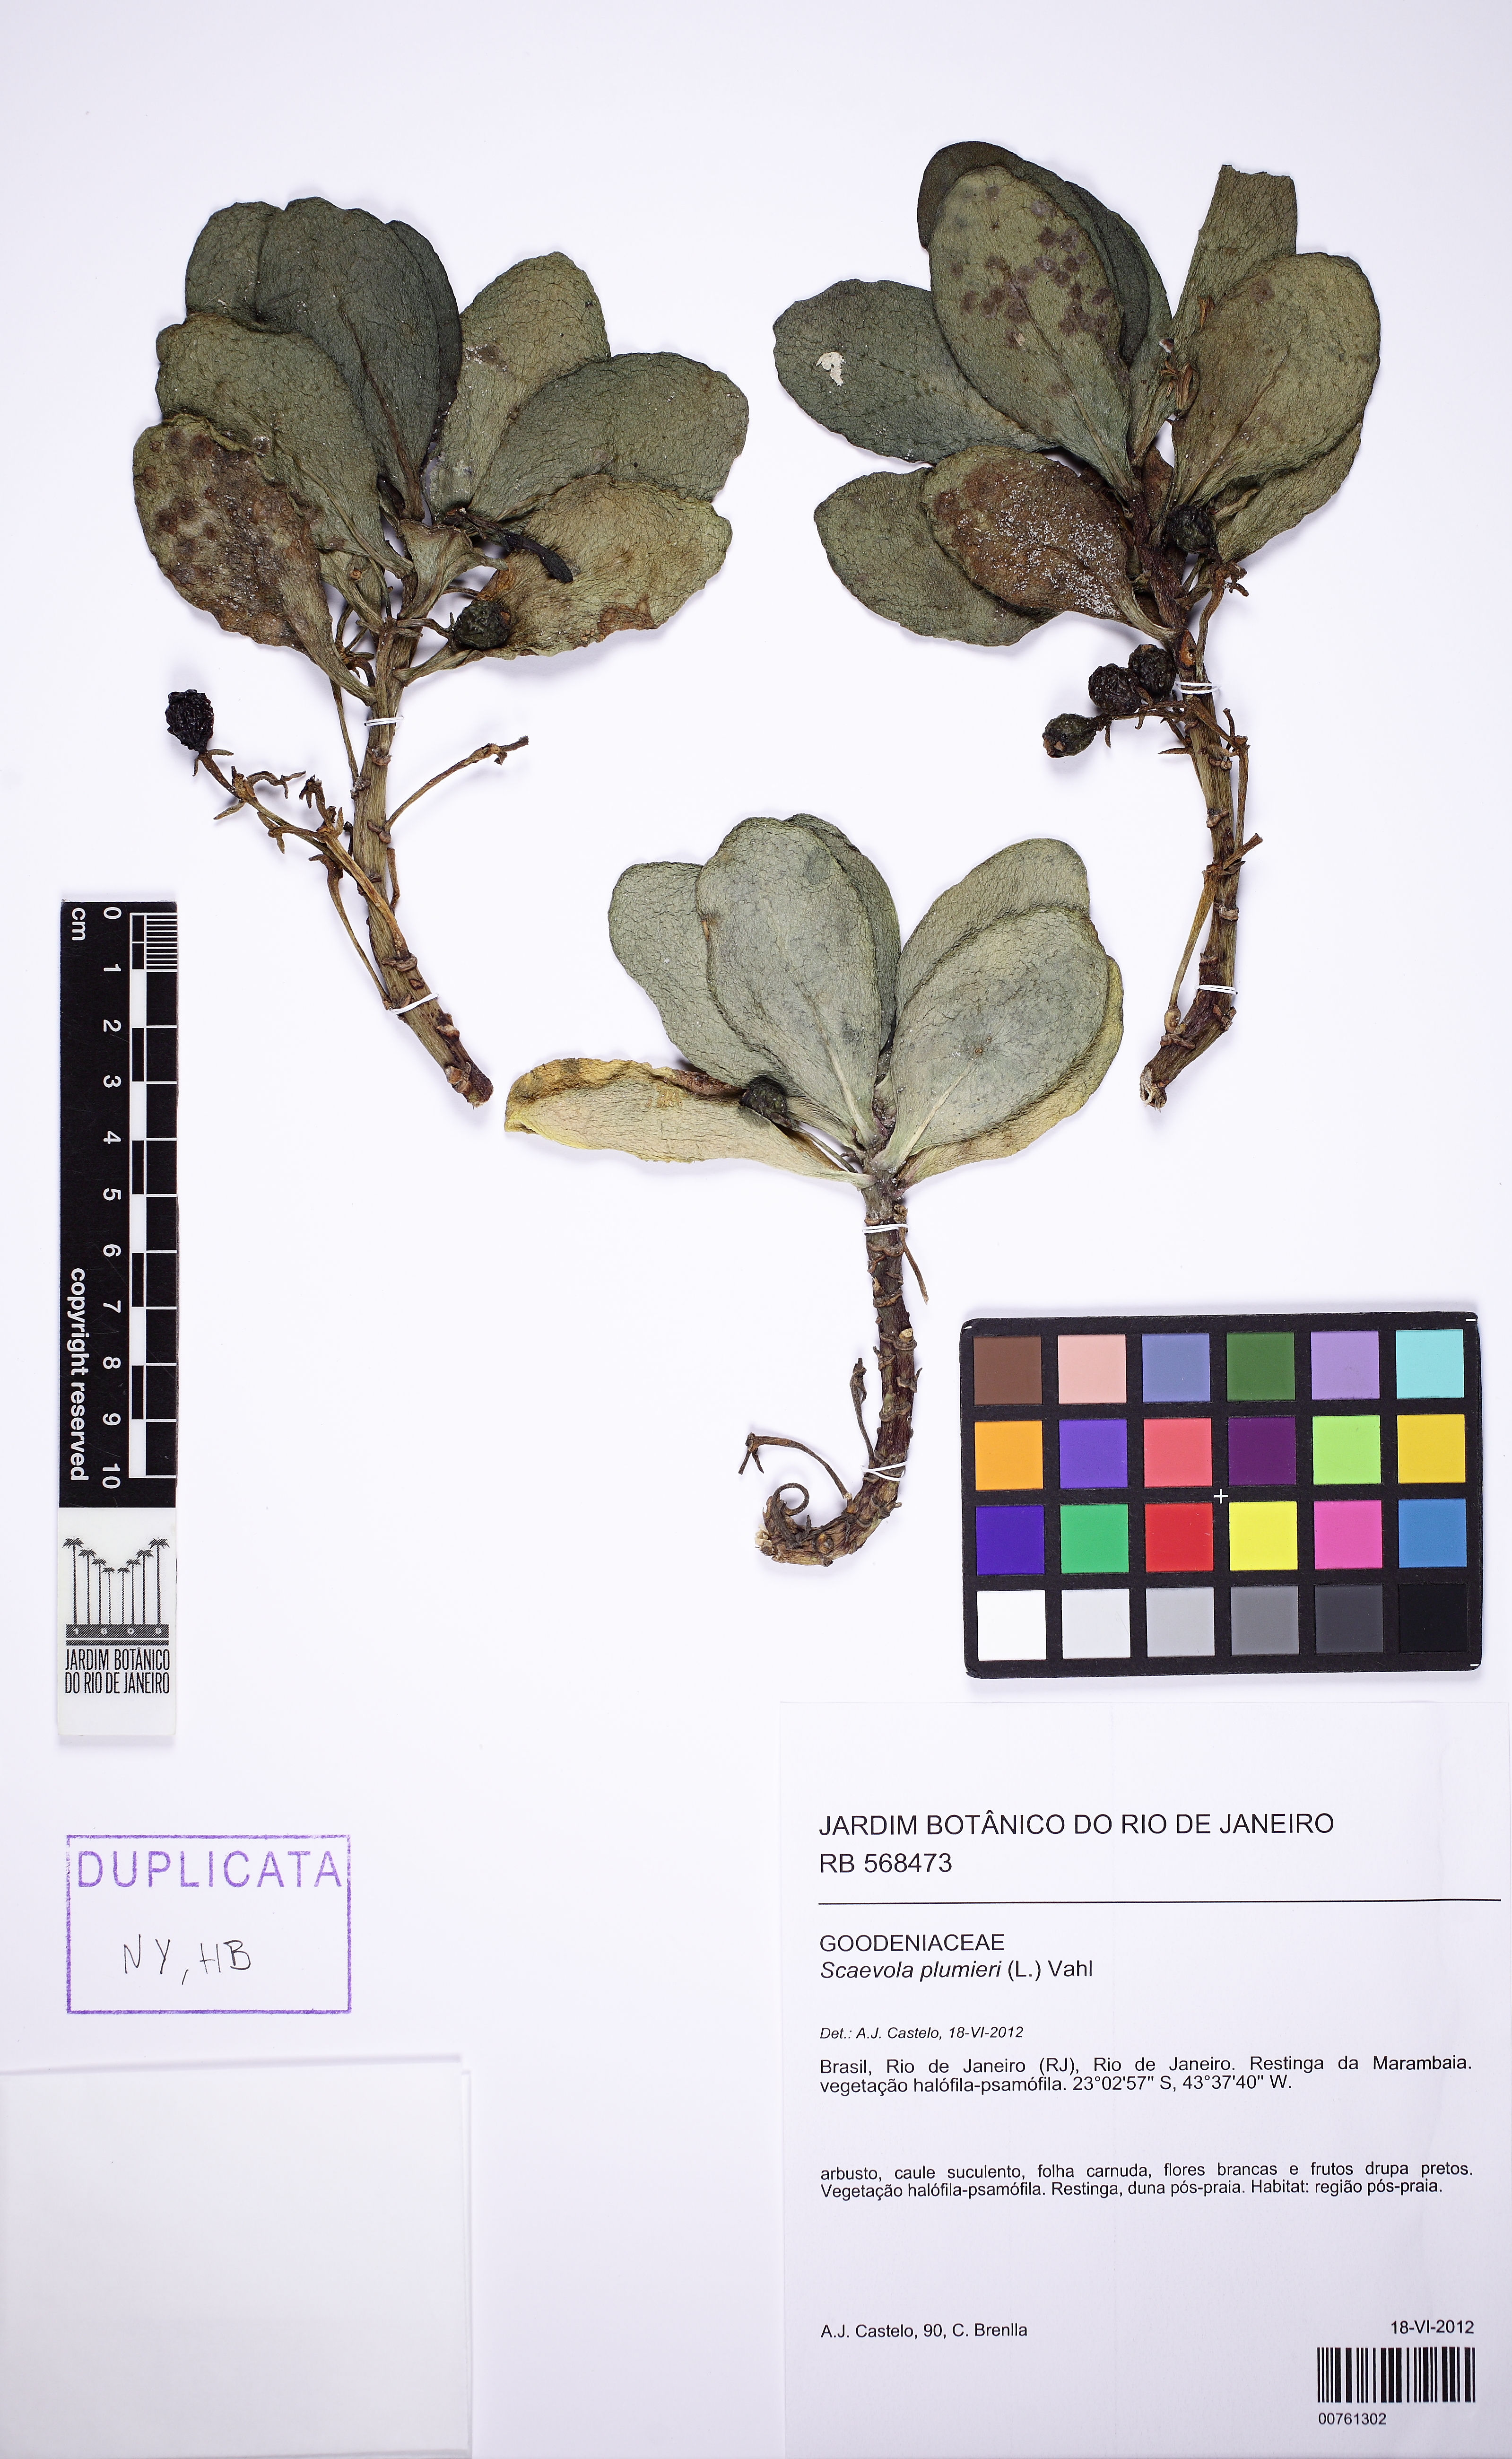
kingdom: Plantae
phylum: Tracheophyta
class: Magnoliopsida
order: Asterales
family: Goodeniaceae
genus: Scaevola
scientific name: Scaevola plumieri
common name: Gull feed
